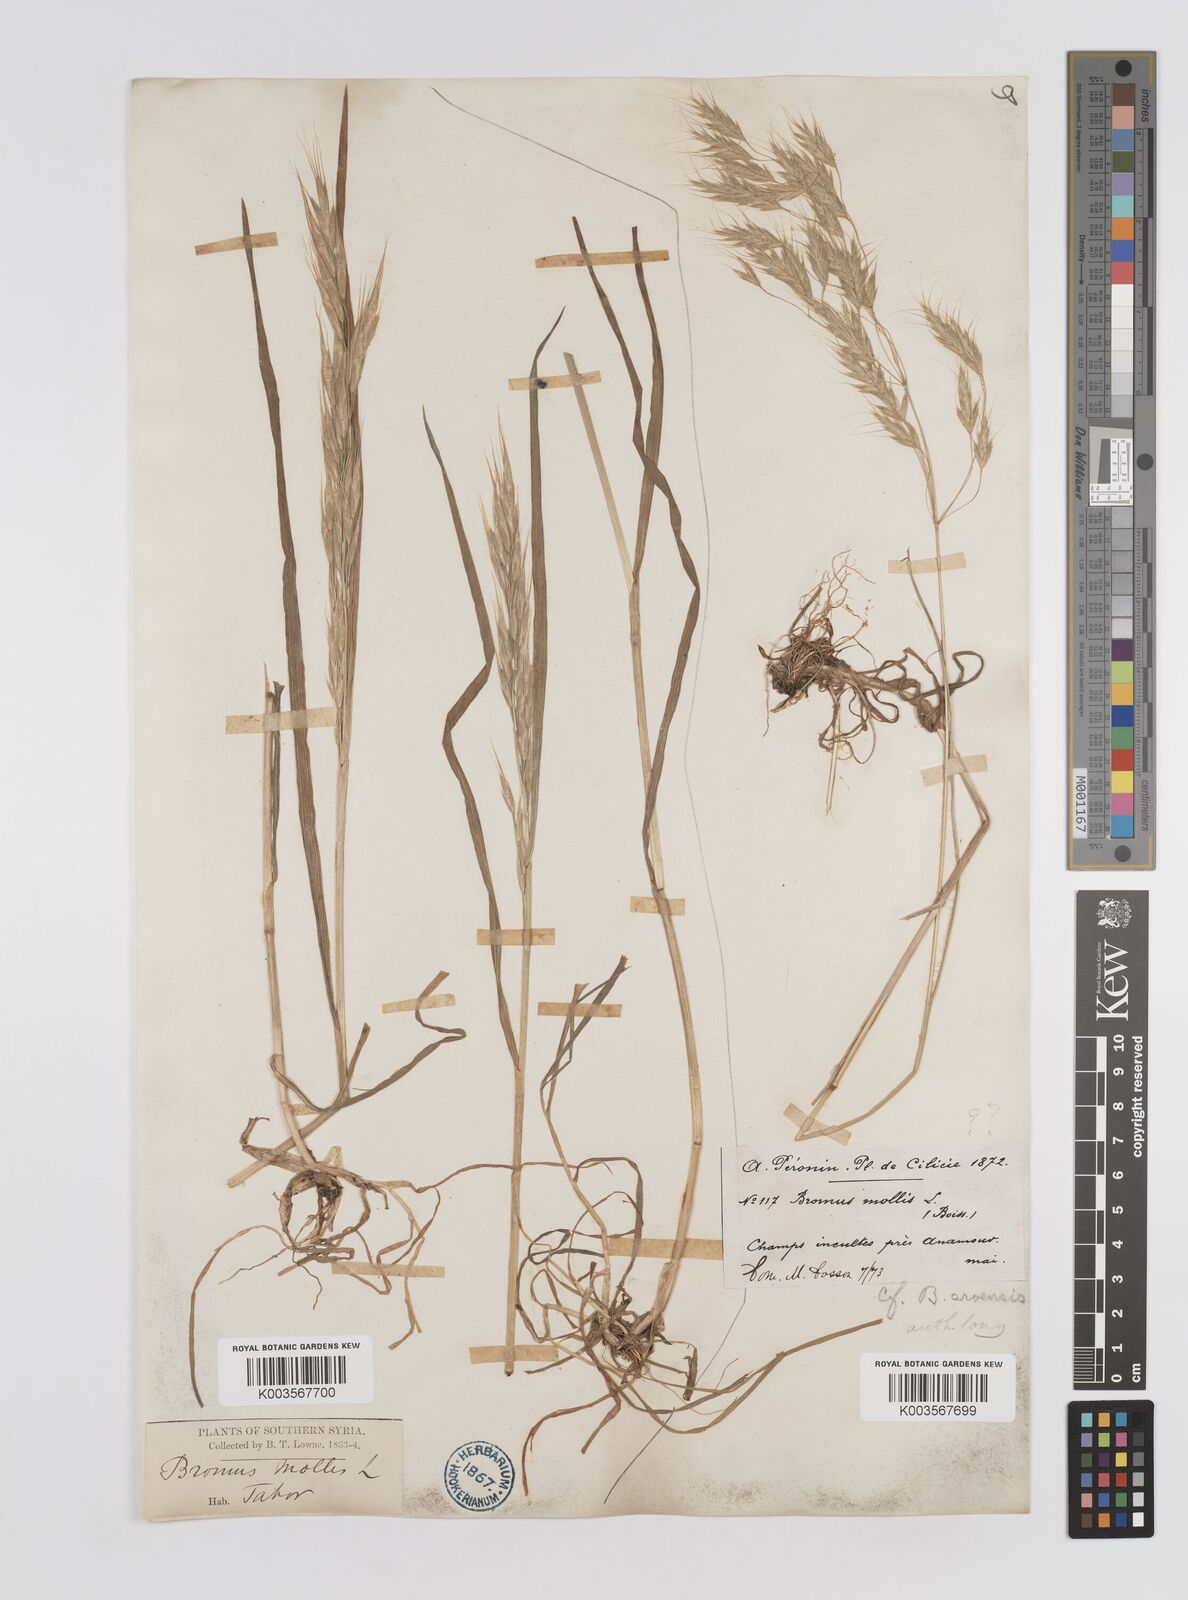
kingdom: Plantae
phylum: Tracheophyta
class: Liliopsida
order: Poales
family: Poaceae
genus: Bromus
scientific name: Bromus
